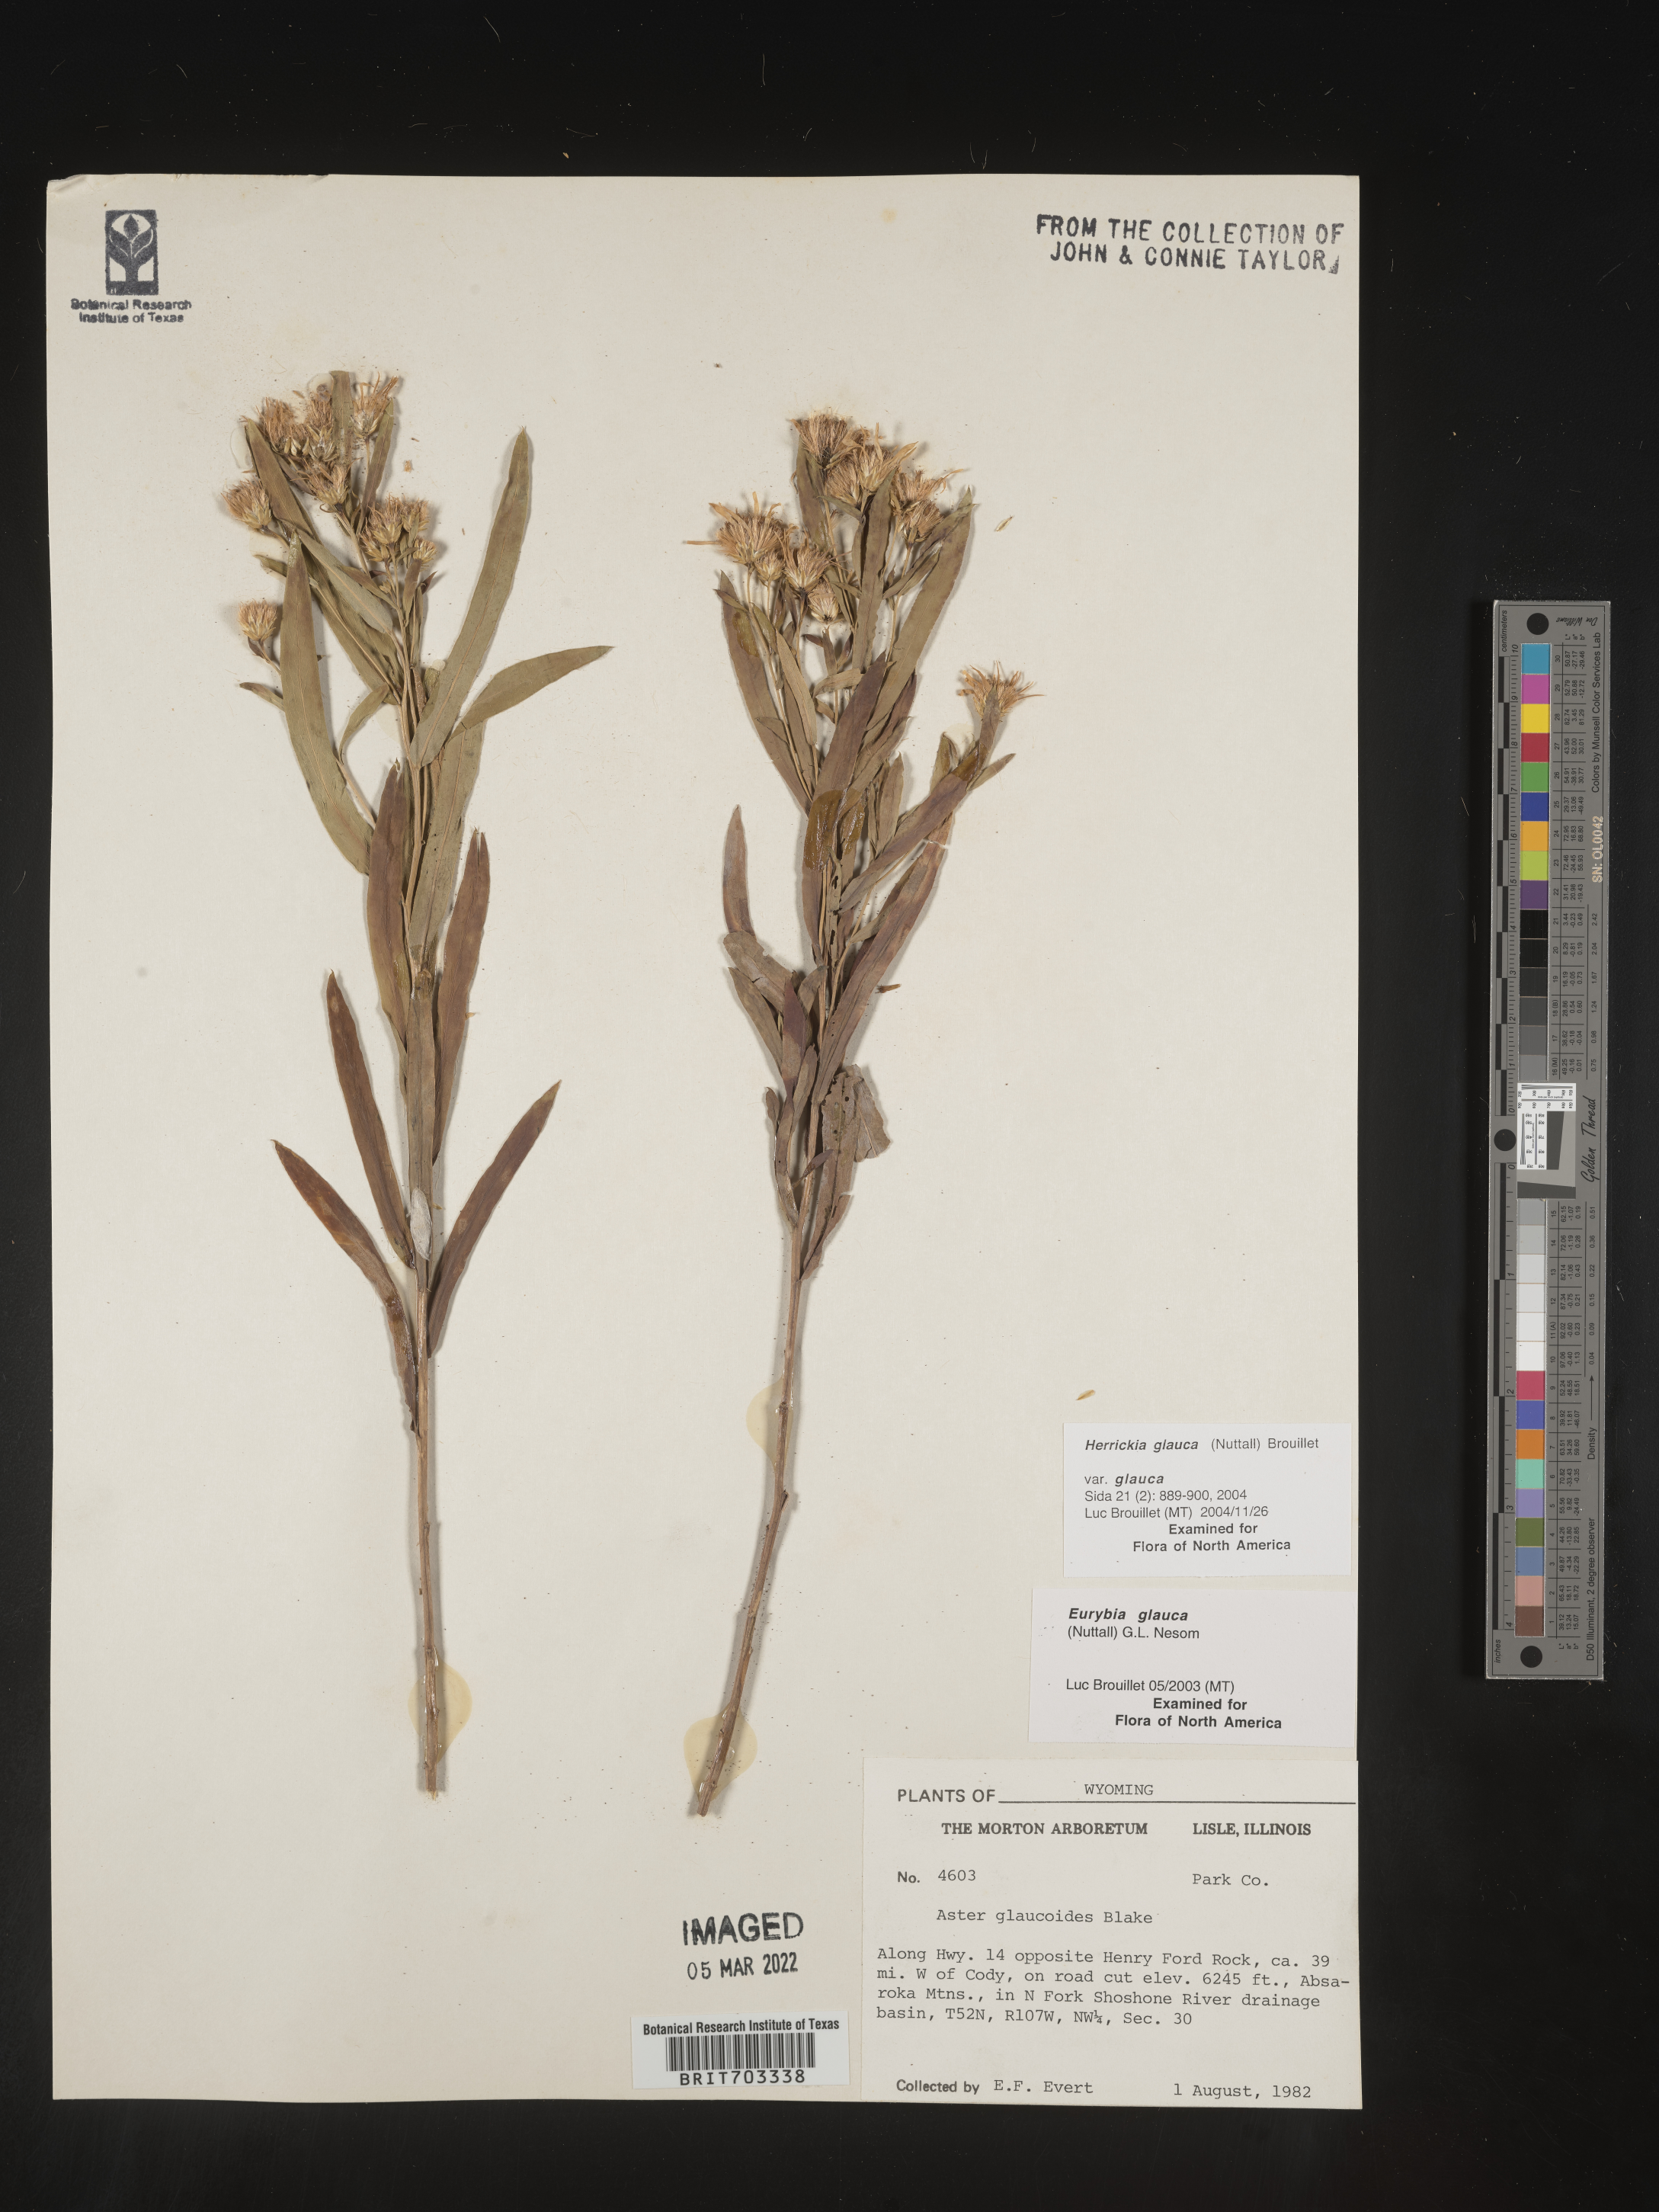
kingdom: Plantae
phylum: Tracheophyta
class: Magnoliopsida
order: Asterales
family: Asteraceae
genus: Eurybia
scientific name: Eurybia glauca
